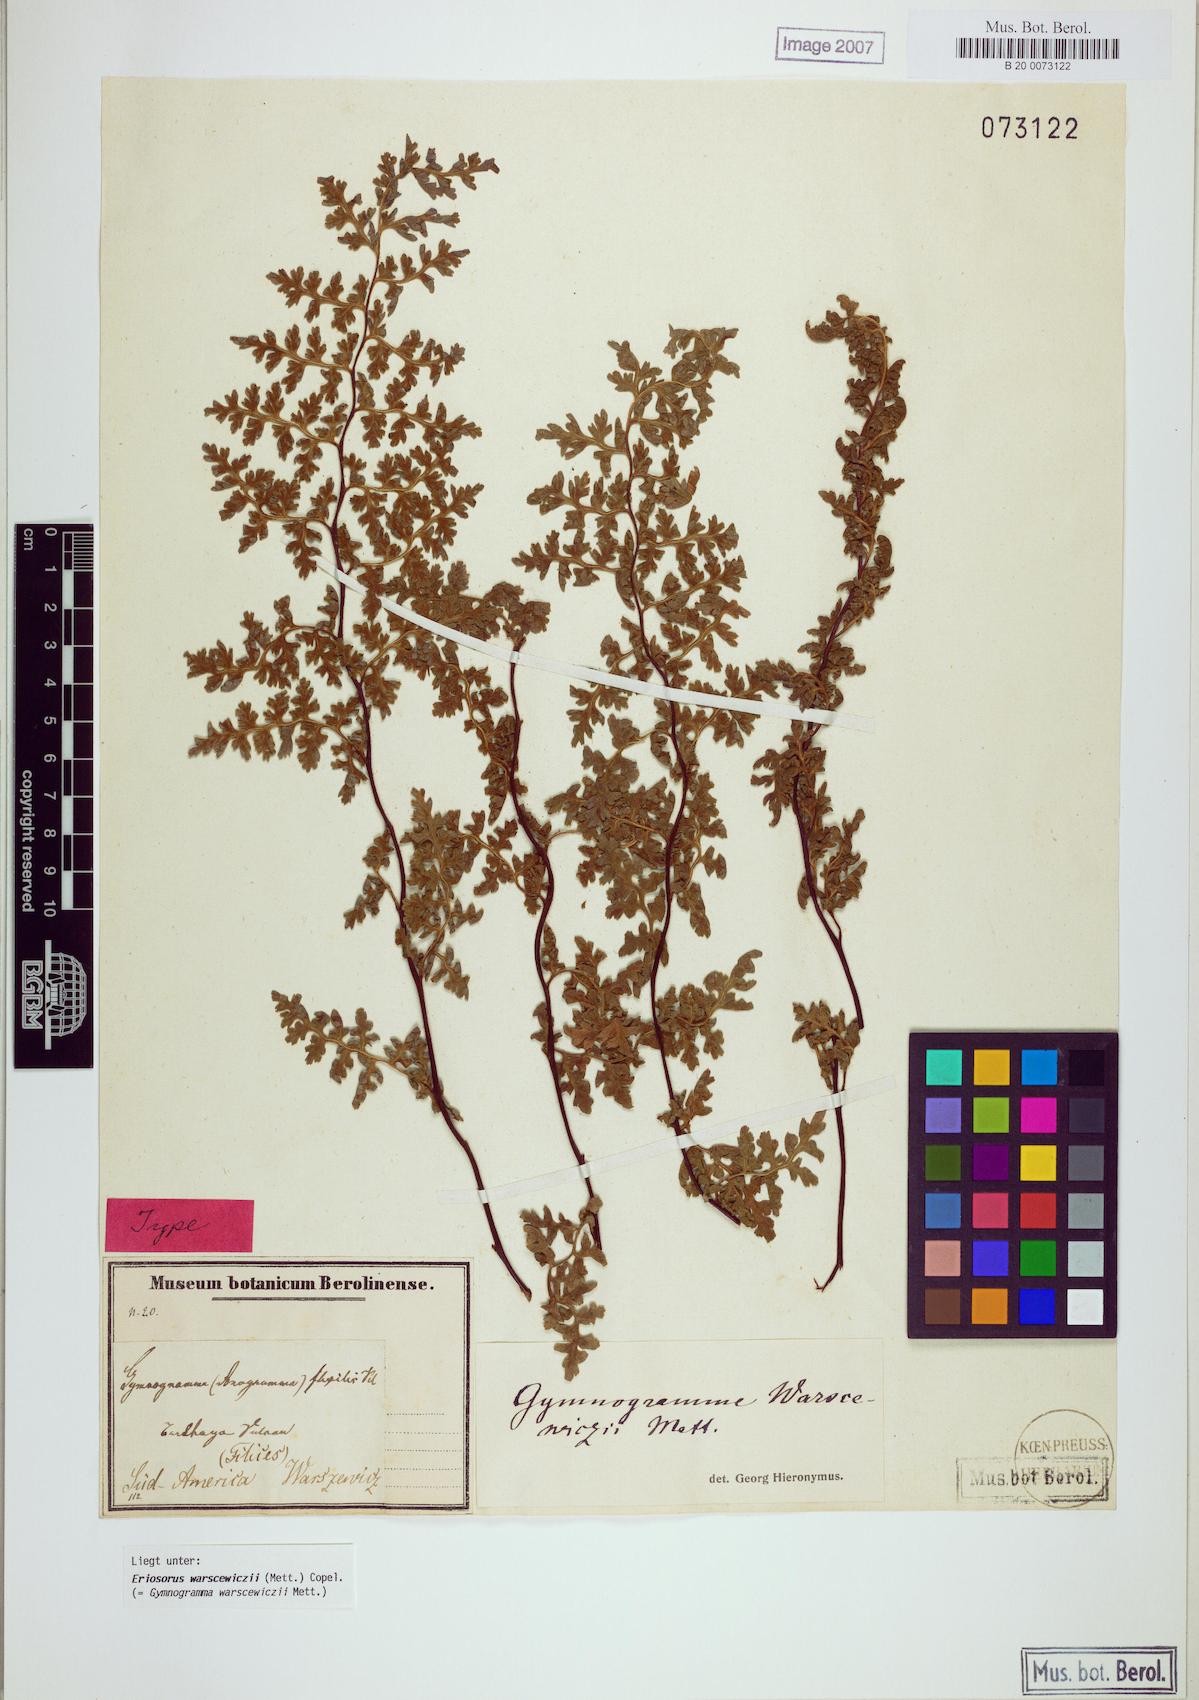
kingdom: Plantae
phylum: Tracheophyta
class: Polypodiopsida
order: Polypodiales
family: Pteridaceae
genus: Jamesonia
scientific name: Jamesonia warscewiczii
